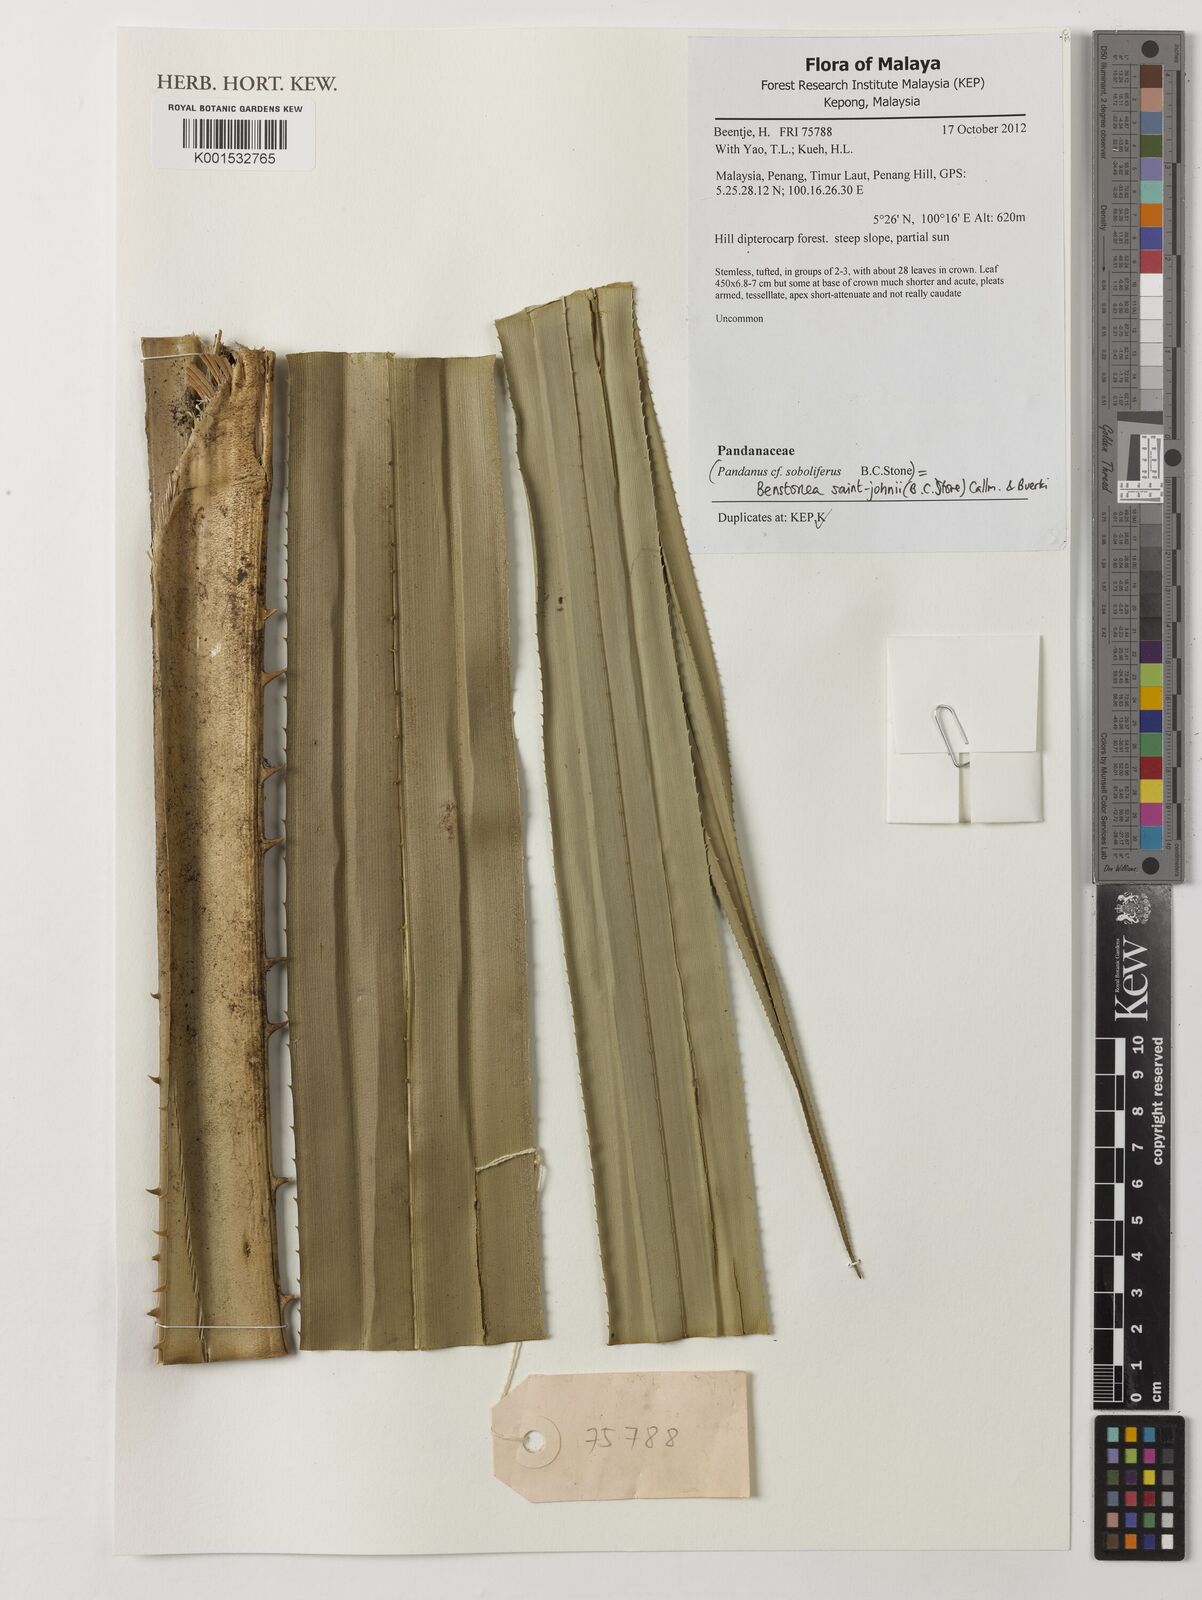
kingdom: Plantae
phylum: Tracheophyta
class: Liliopsida
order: Pandanales
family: Pandanaceae
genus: Benstonea
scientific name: Benstonea saint-johnii
